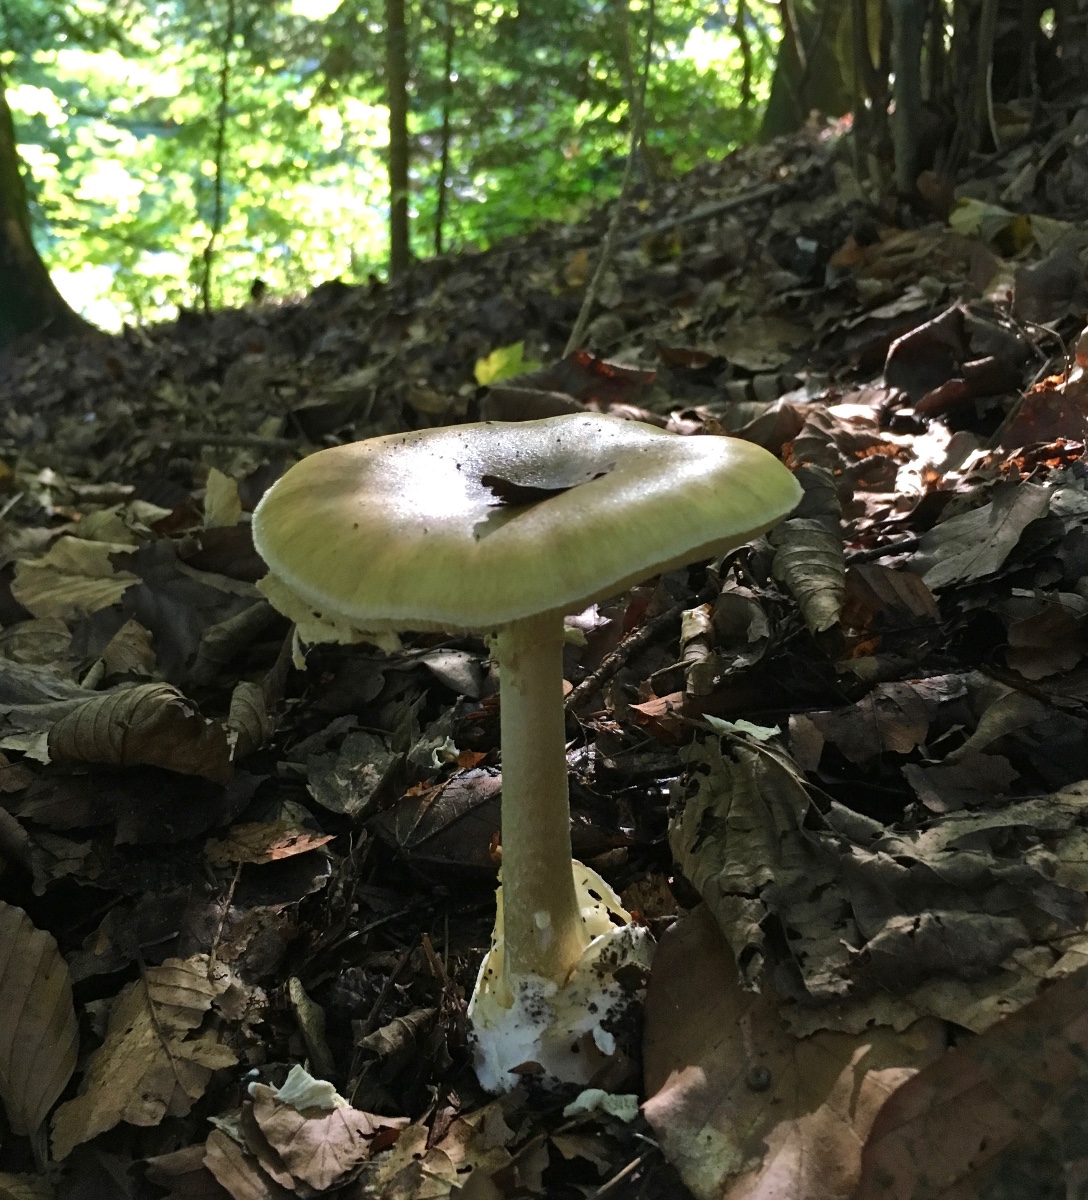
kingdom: Fungi
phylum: Basidiomycota
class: Agaricomycetes
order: Agaricales
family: Amanitaceae
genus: Amanita
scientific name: Amanita phalloides
